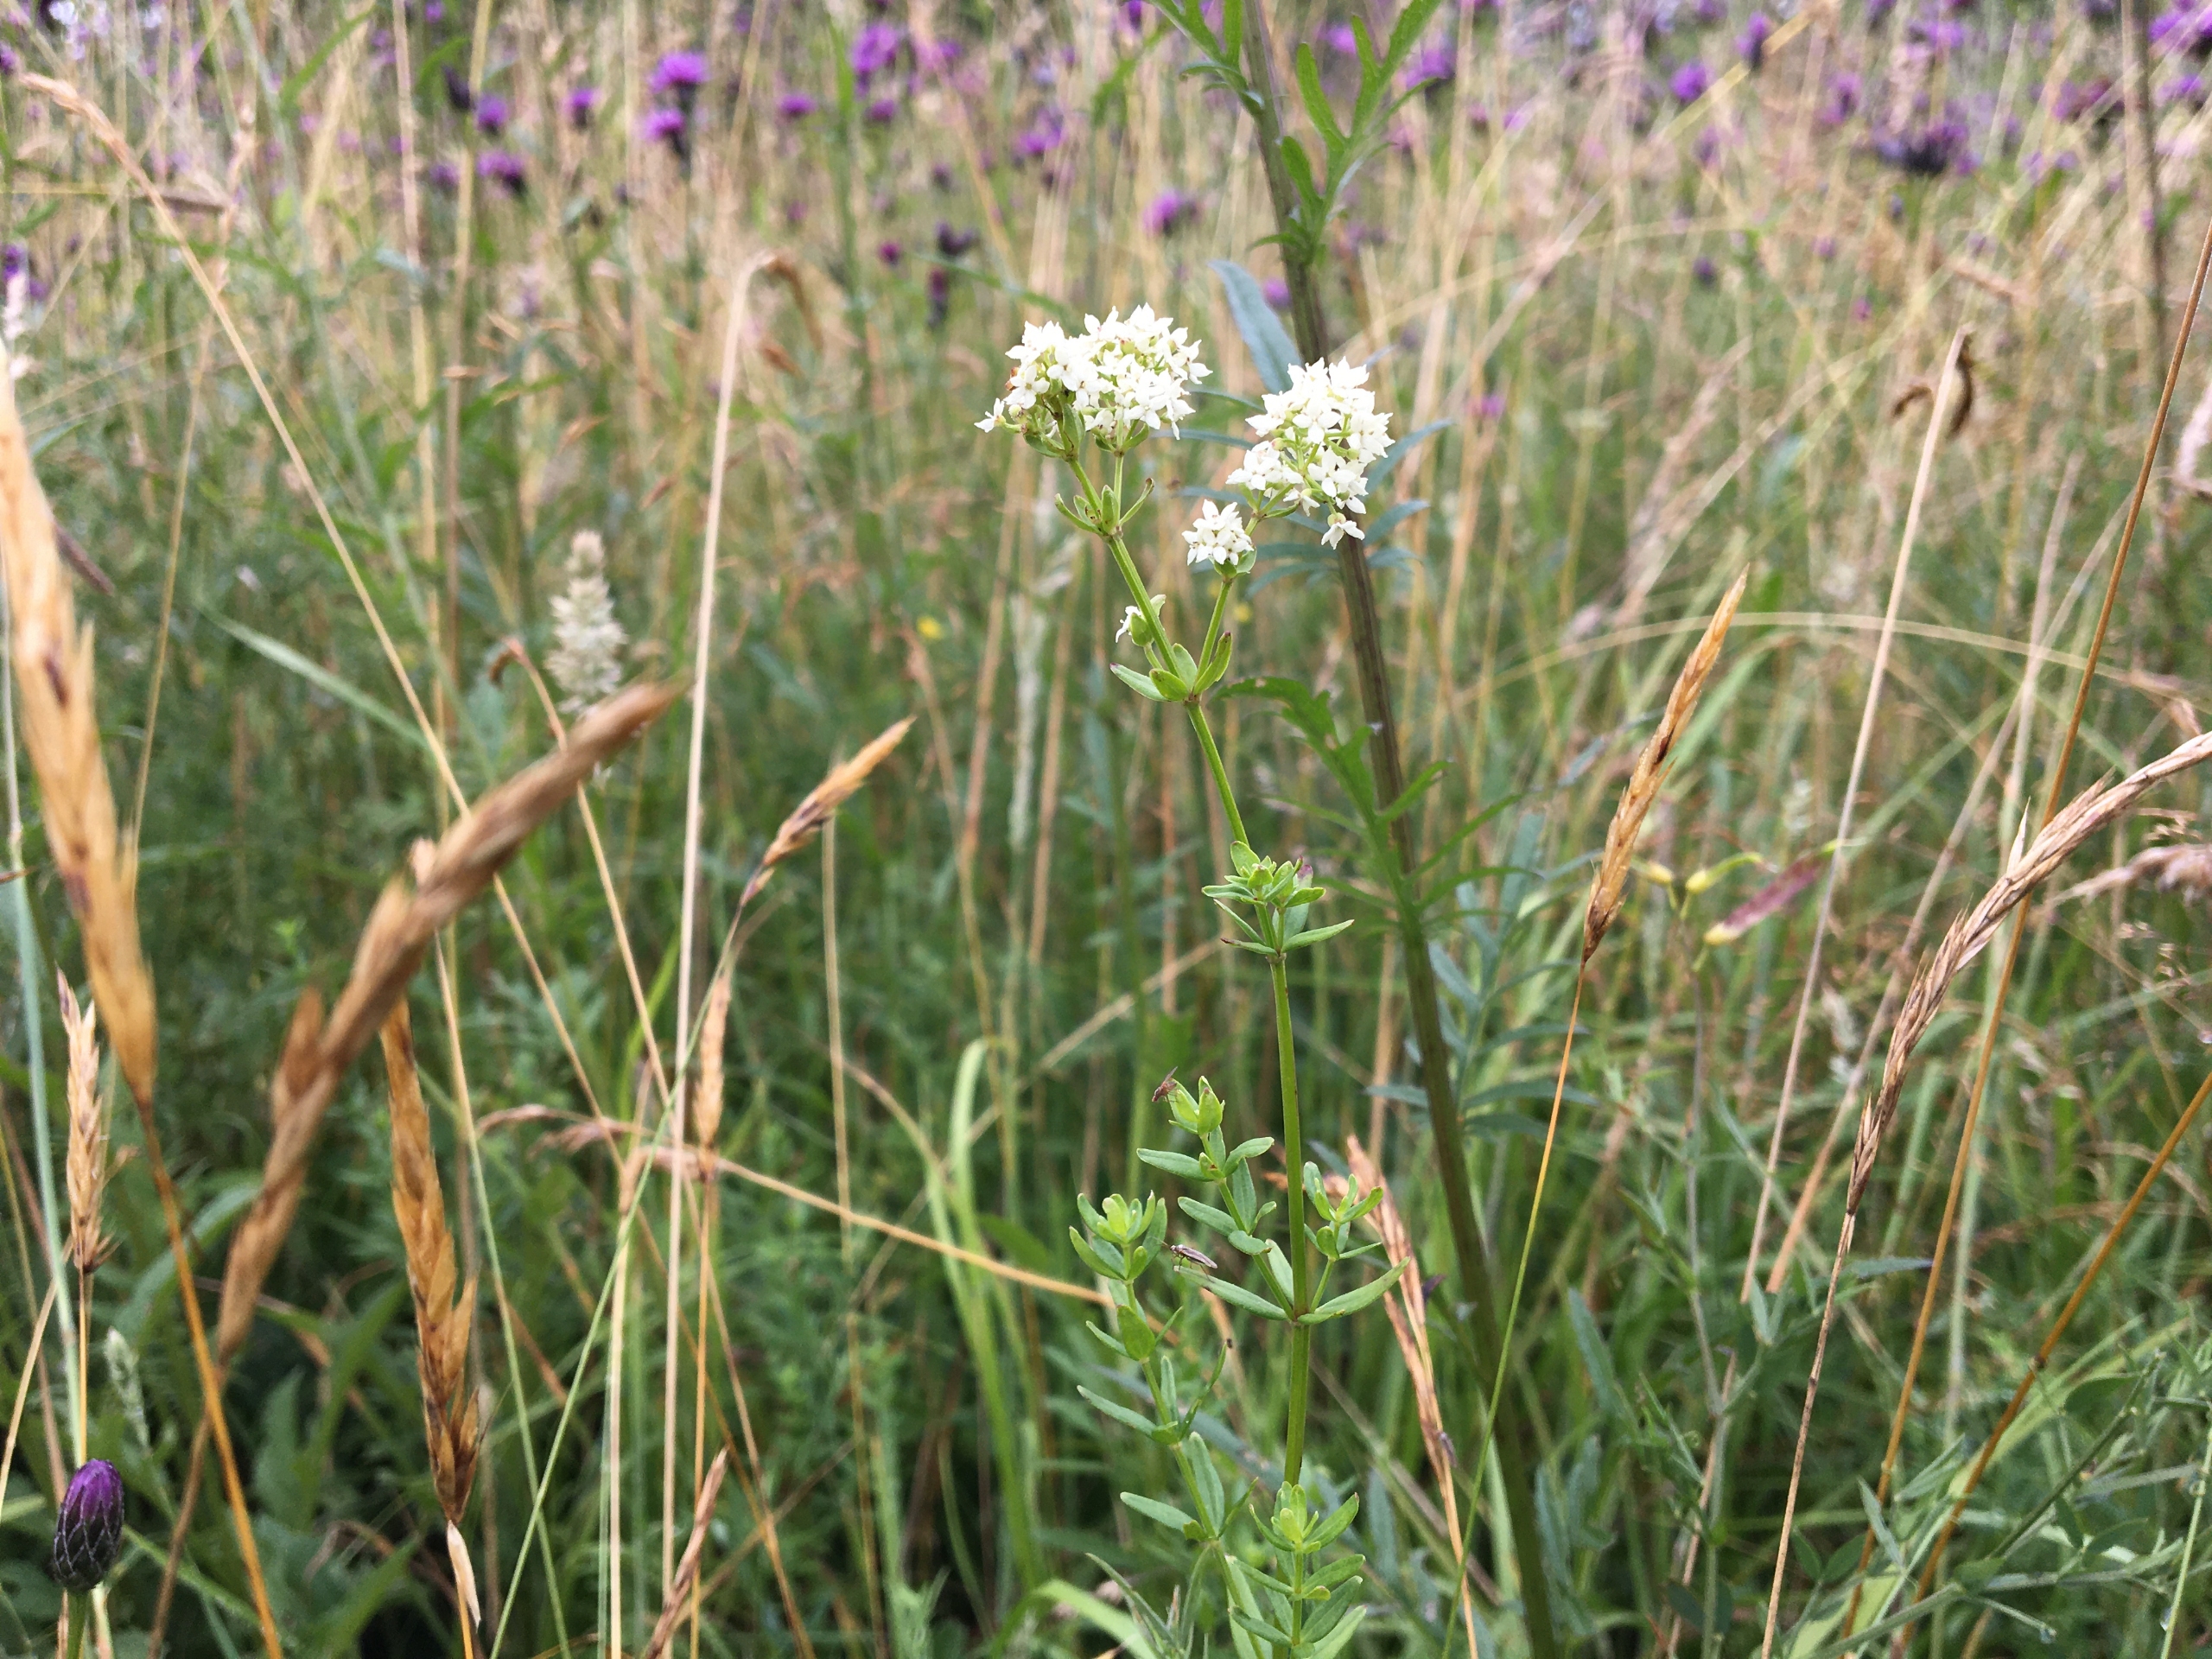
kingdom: Plantae
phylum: Tracheophyta
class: Magnoliopsida
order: Gentianales
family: Rubiaceae
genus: Galium
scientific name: Galium boreale
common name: Trenervet snerre
